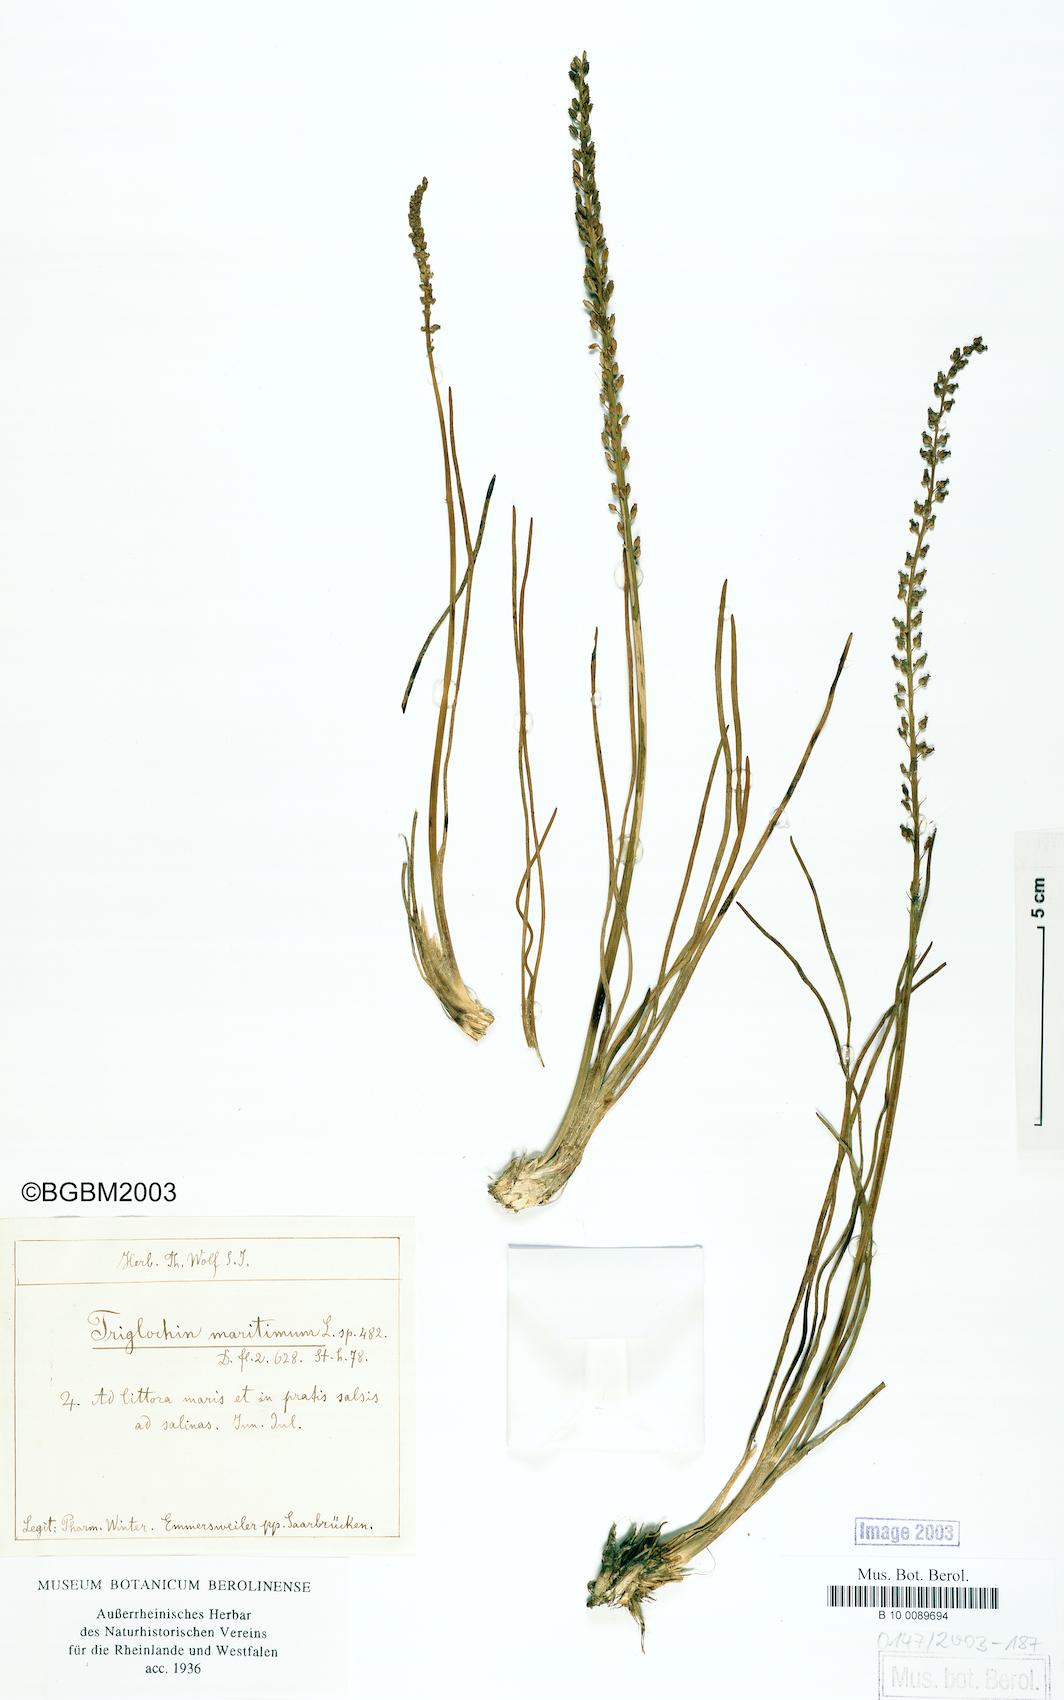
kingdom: Plantae
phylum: Tracheophyta
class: Liliopsida
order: Alismatales
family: Juncaginaceae
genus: Triglochin
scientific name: Triglochin maritima
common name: Sea arrowgrass
